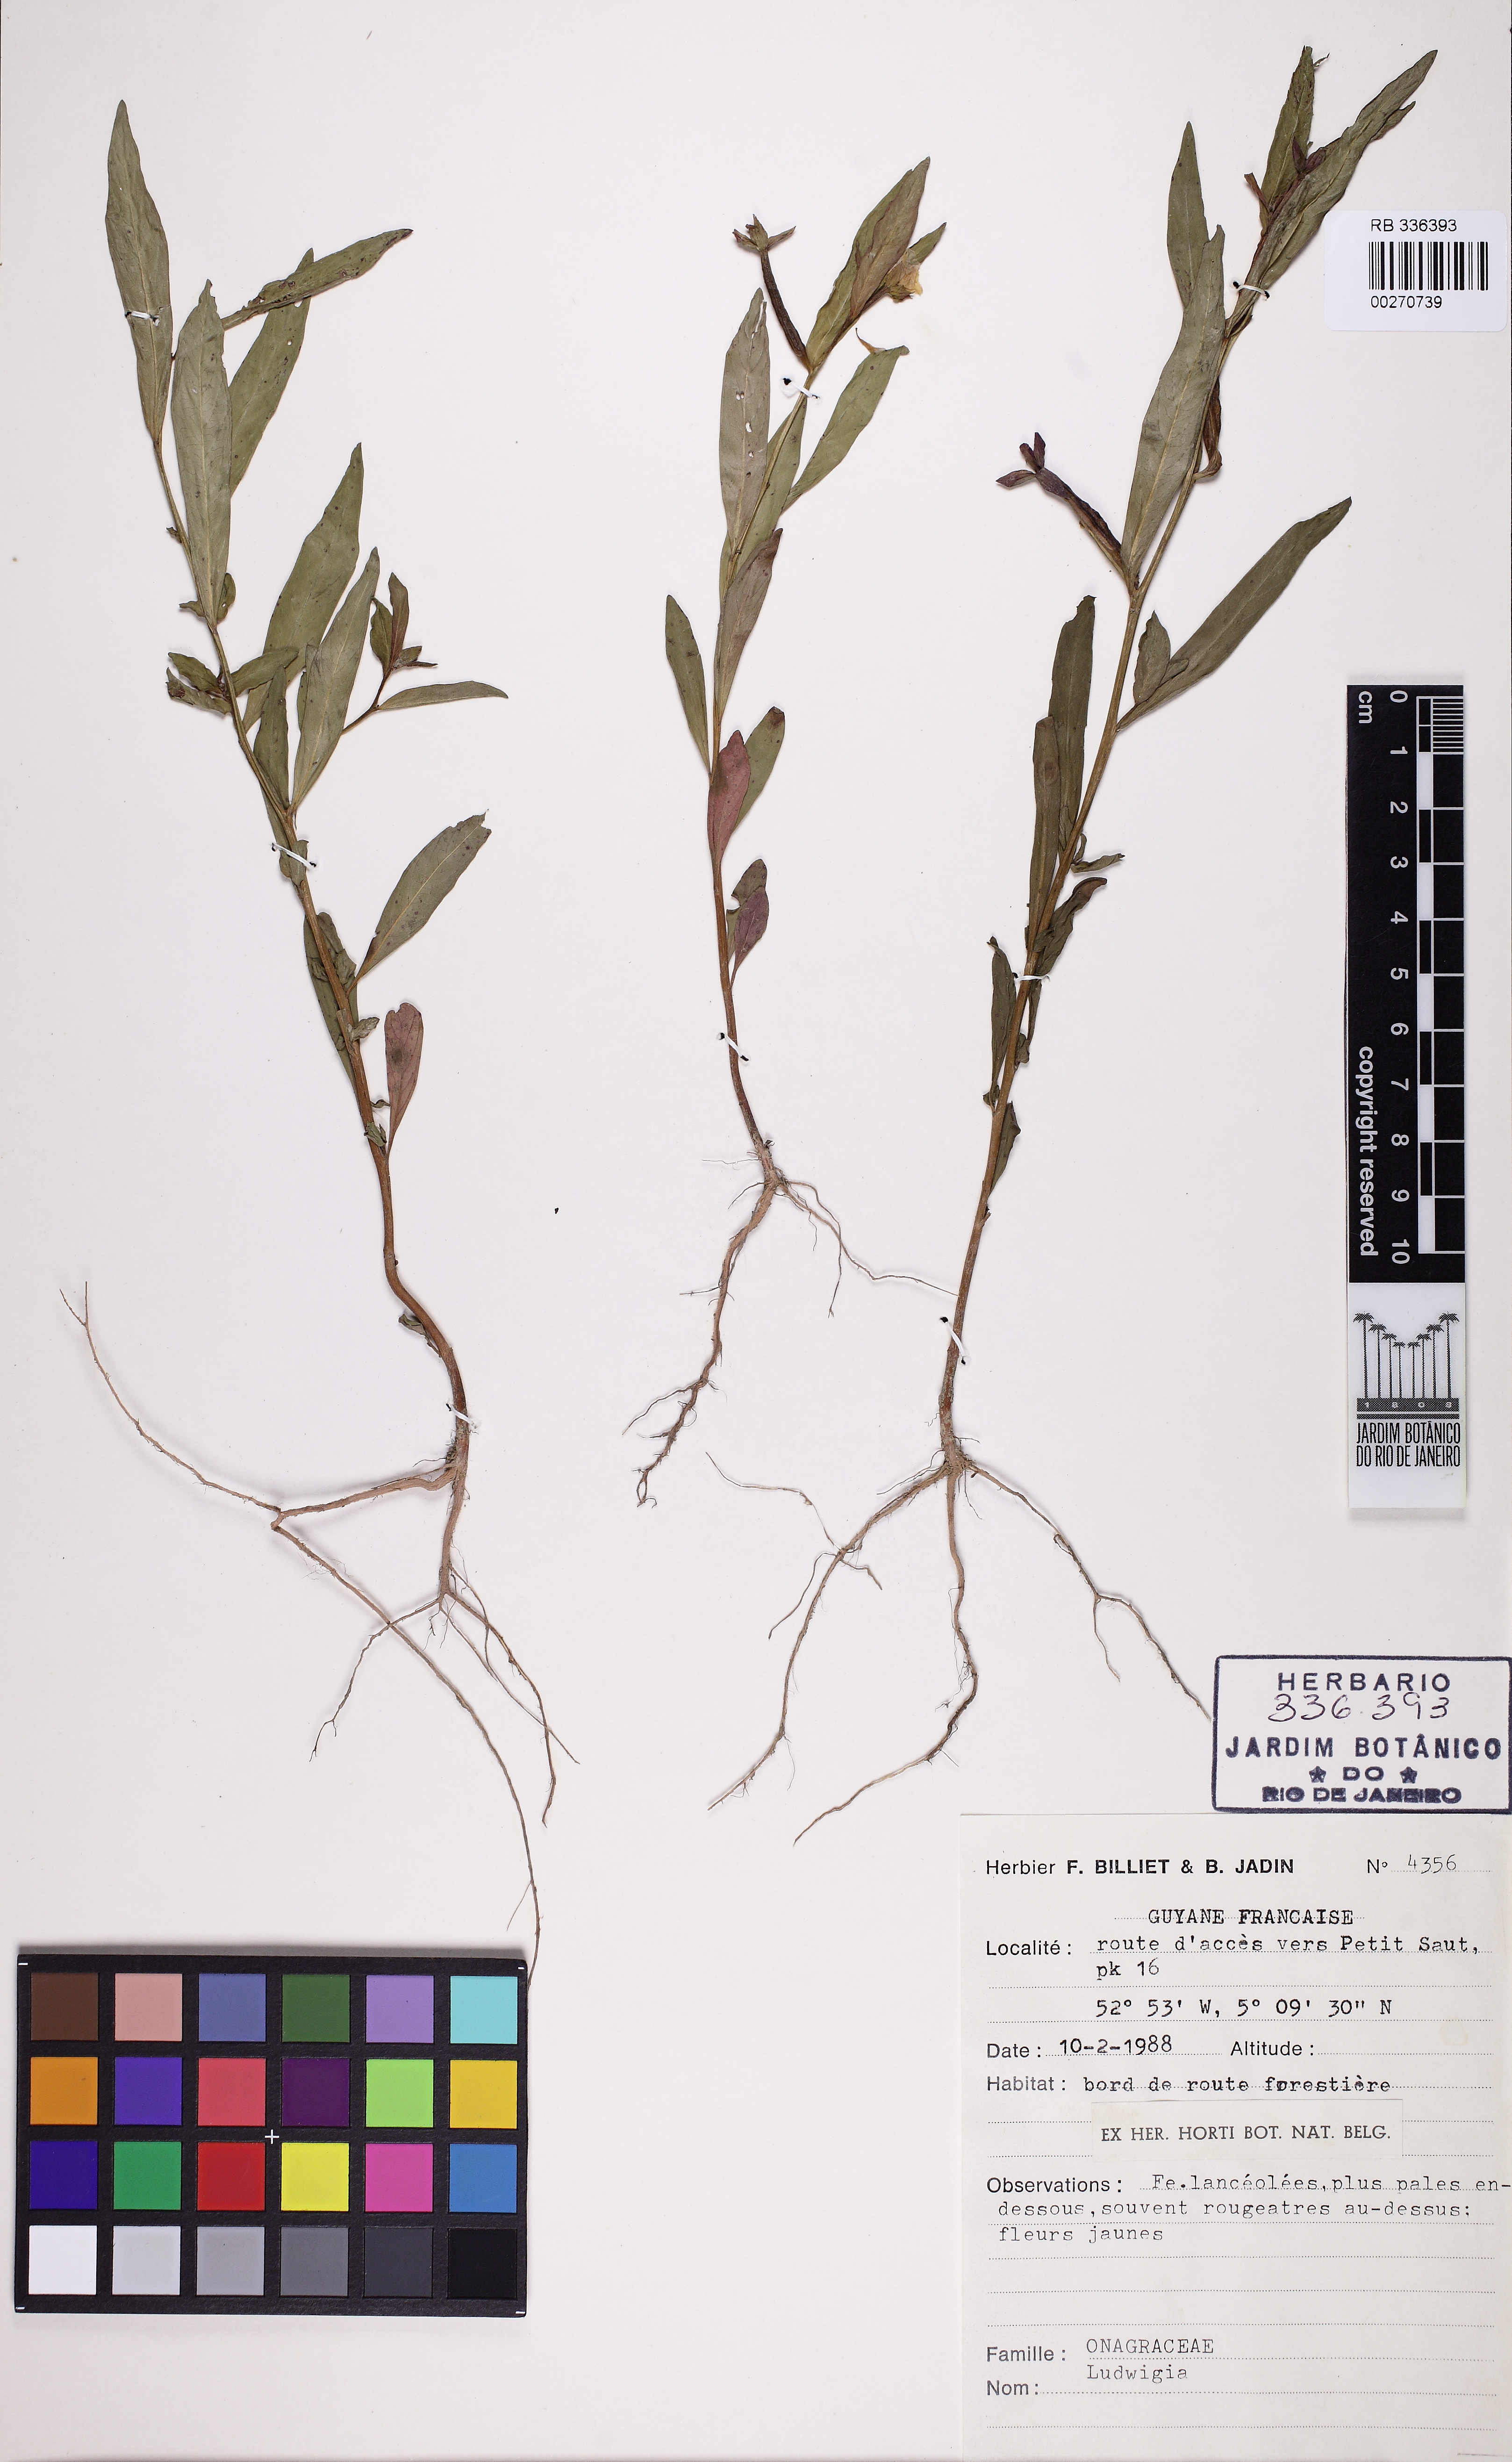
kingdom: Plantae
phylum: Tracheophyta
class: Magnoliopsida
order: Myrtales
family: Onagraceae
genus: Ludwigia
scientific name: Ludwigia
